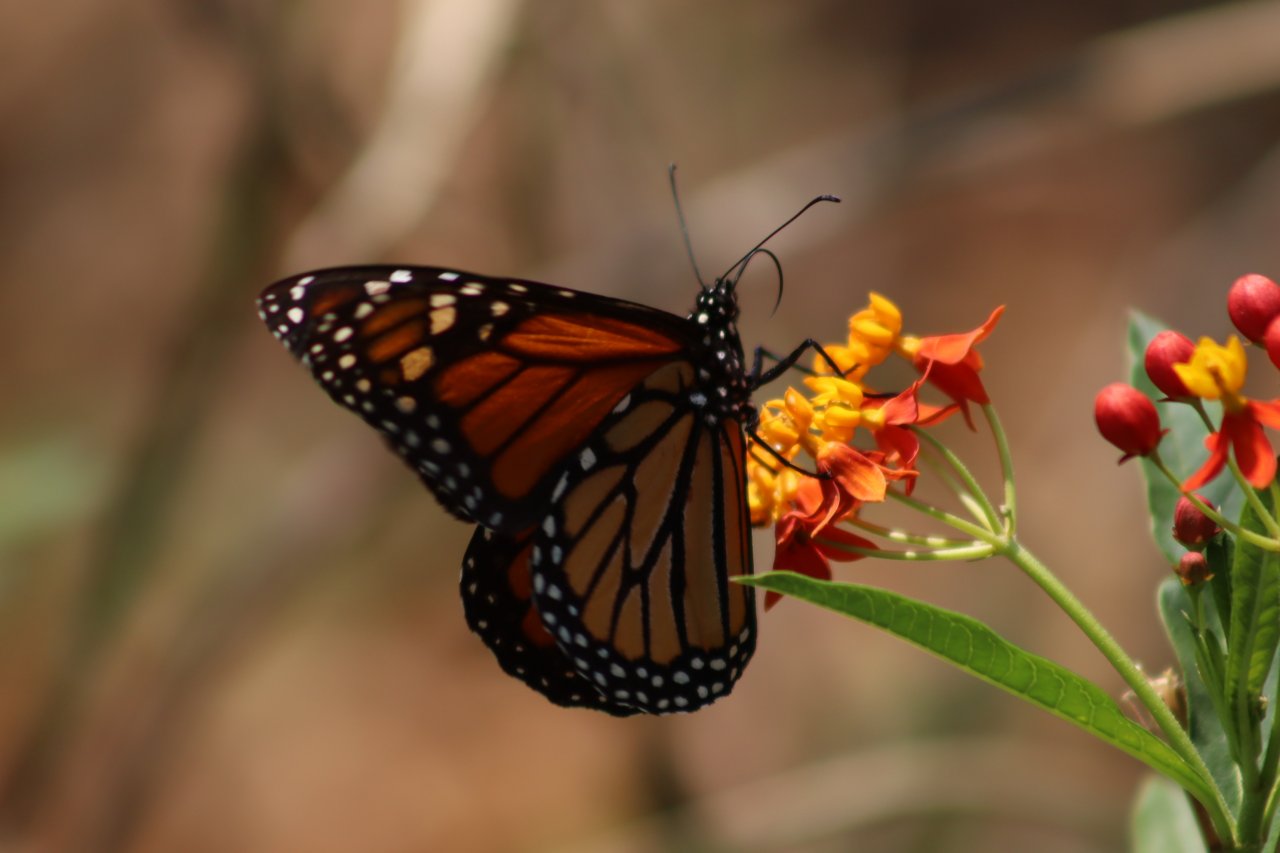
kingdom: Animalia
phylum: Arthropoda
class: Insecta
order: Lepidoptera
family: Nymphalidae
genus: Danaus
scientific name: Danaus plexippus
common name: Monarch
